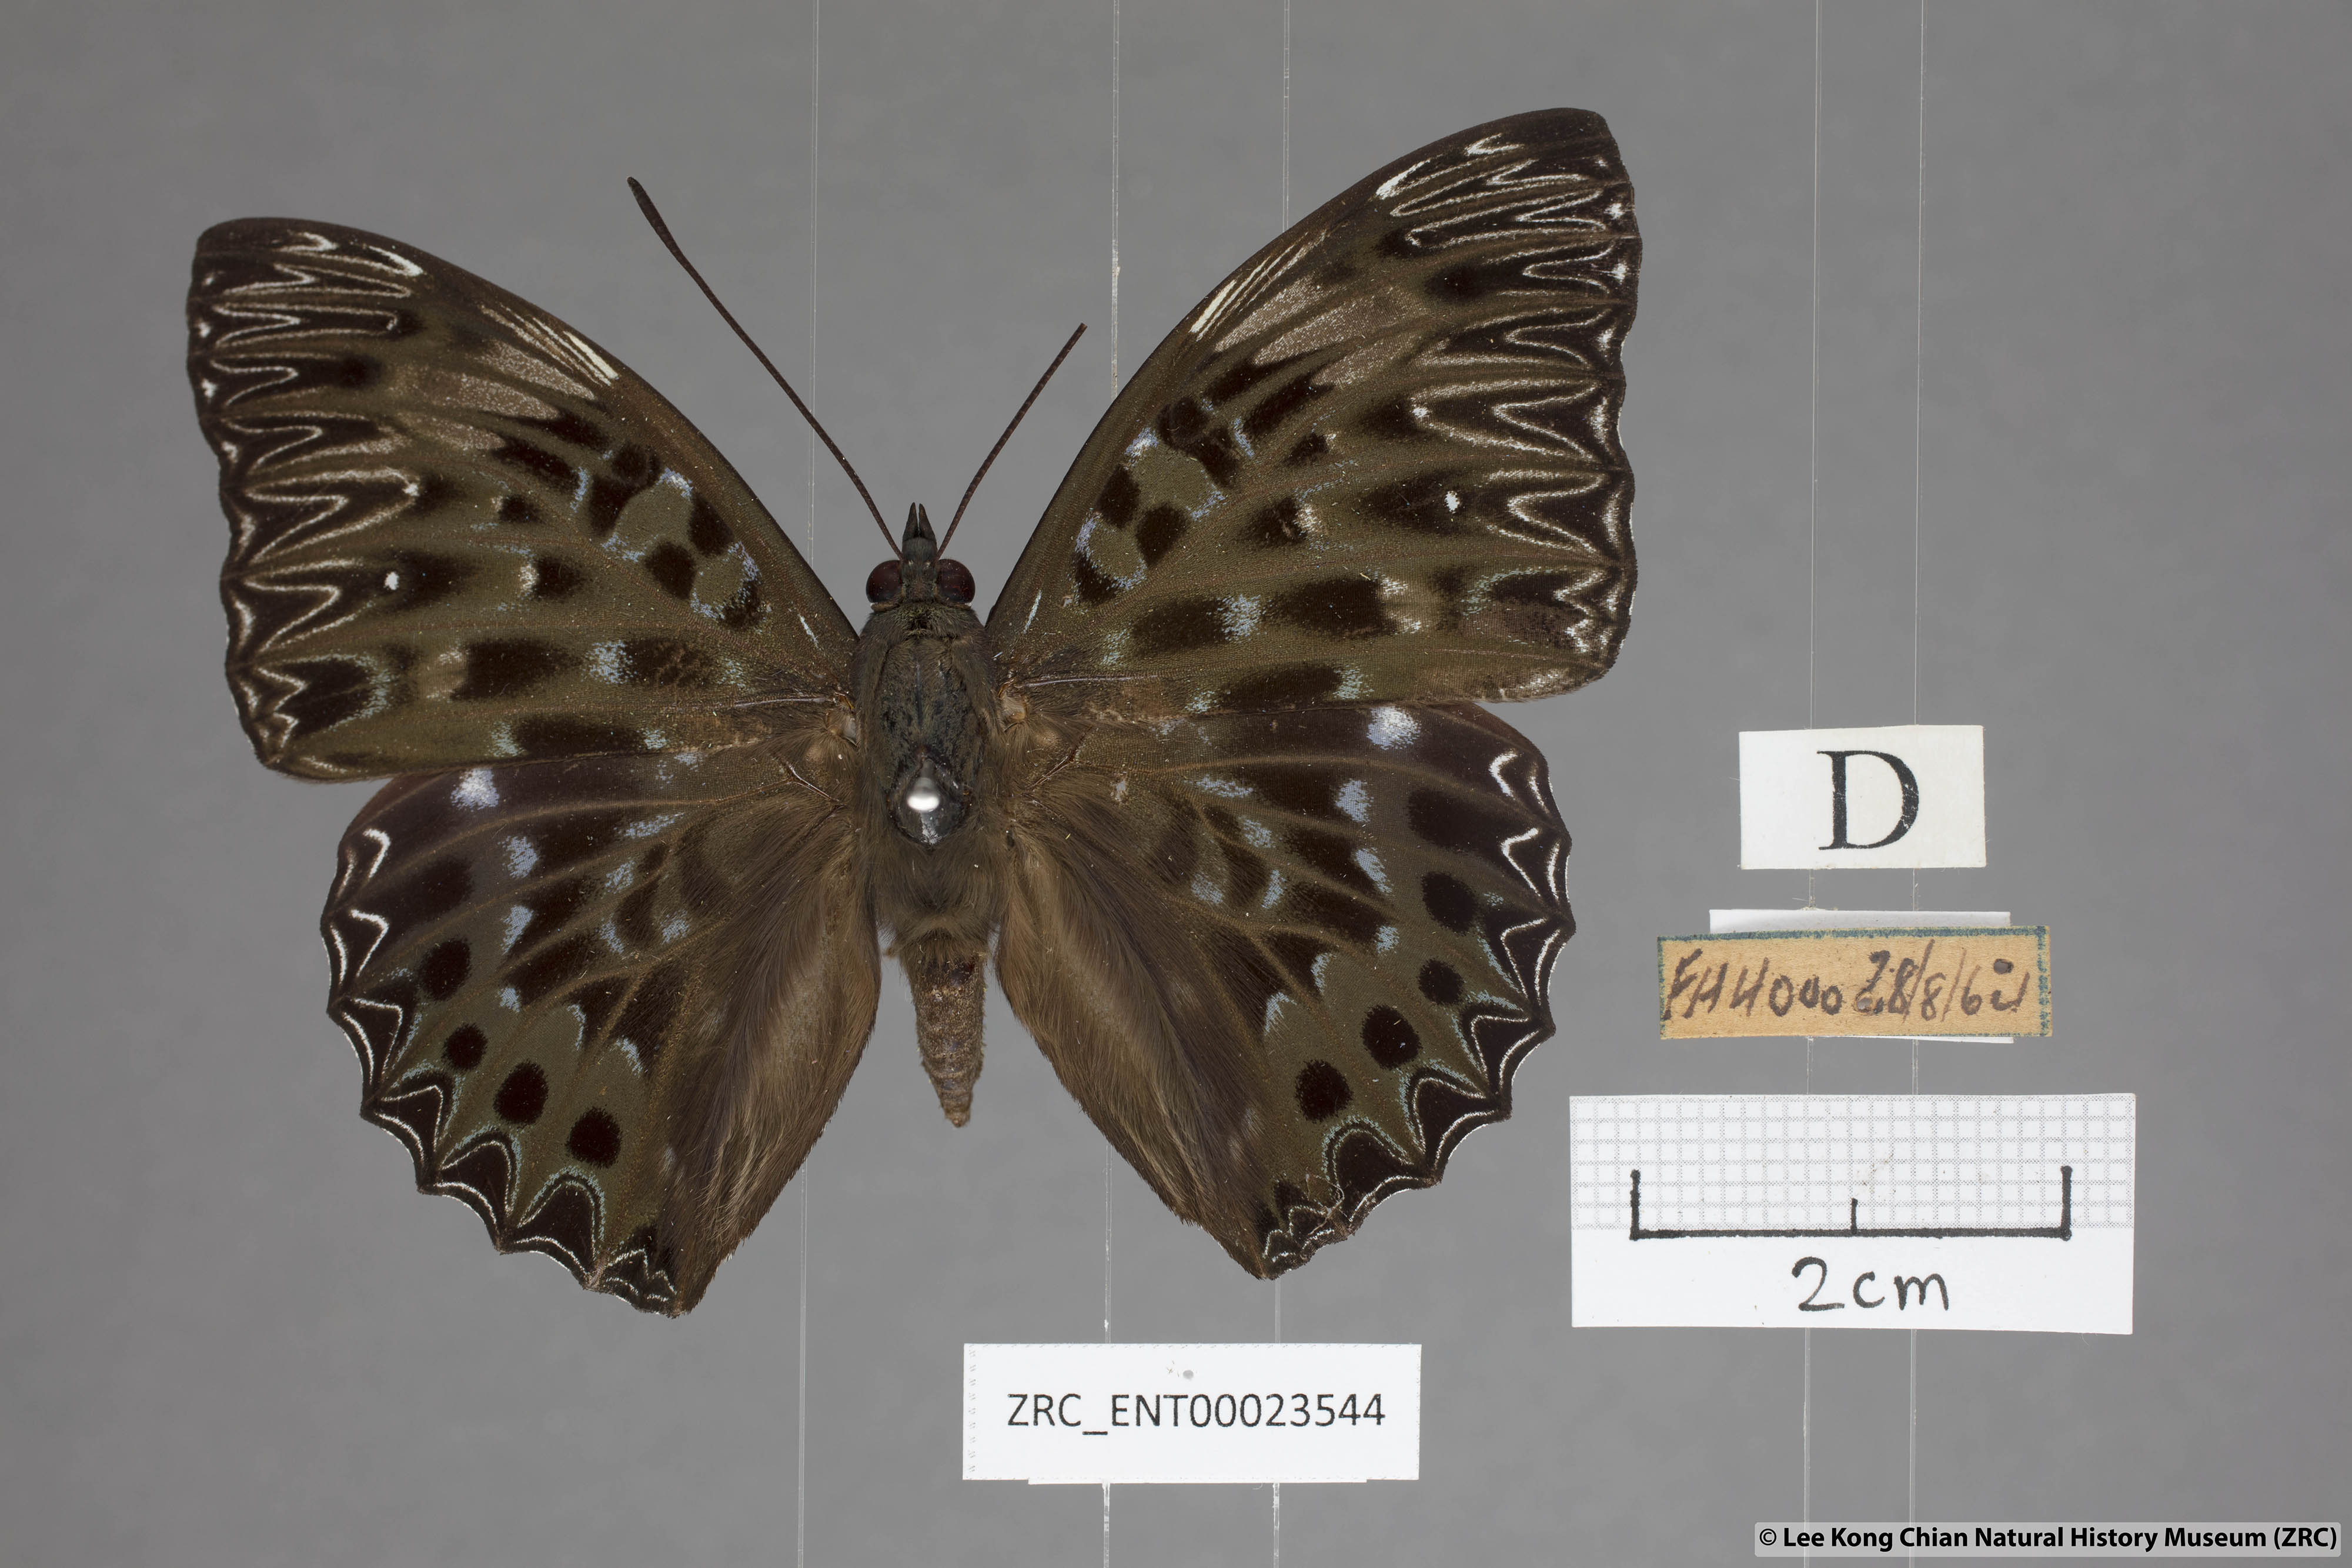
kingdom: Animalia
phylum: Arthropoda
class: Insecta
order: Lepidoptera
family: Nymphalidae
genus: Dichorragia
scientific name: Dichorragia nesimachus
